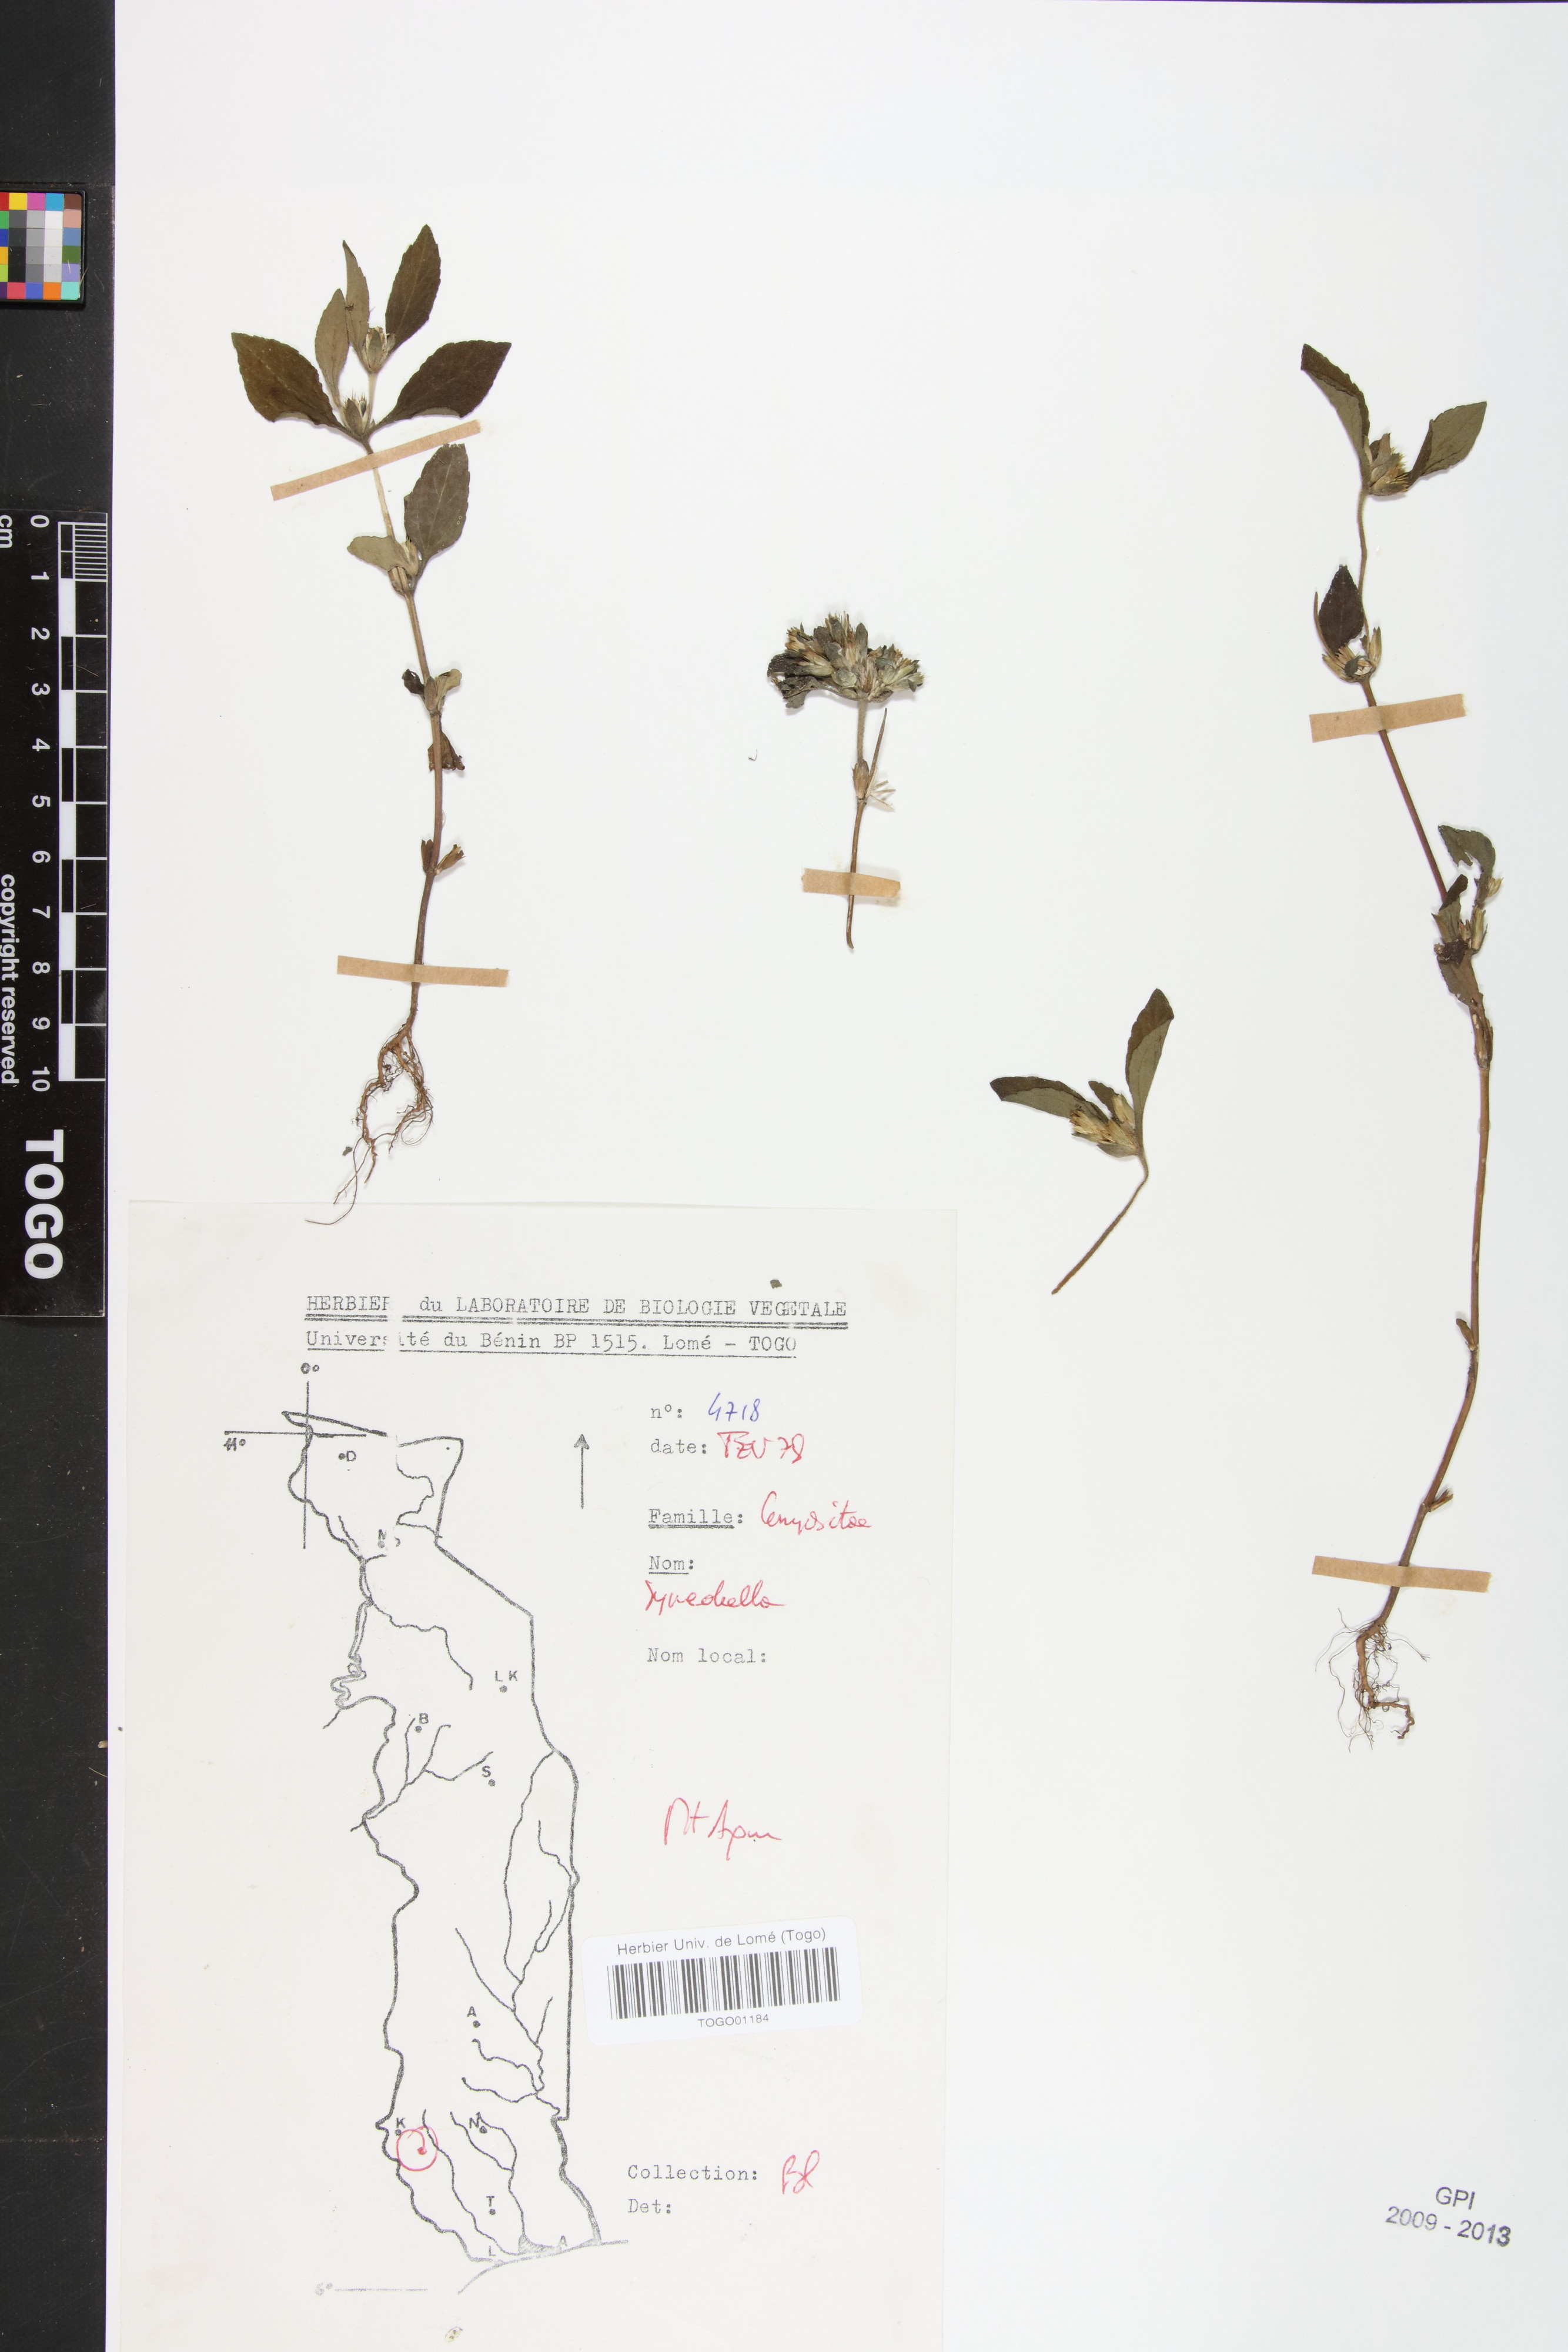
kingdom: Plantae
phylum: Tracheophyta
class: Magnoliopsida
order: Asterales
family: Asteraceae
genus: Synedrella
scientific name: Synedrella nodiflora
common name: Nodeweed
